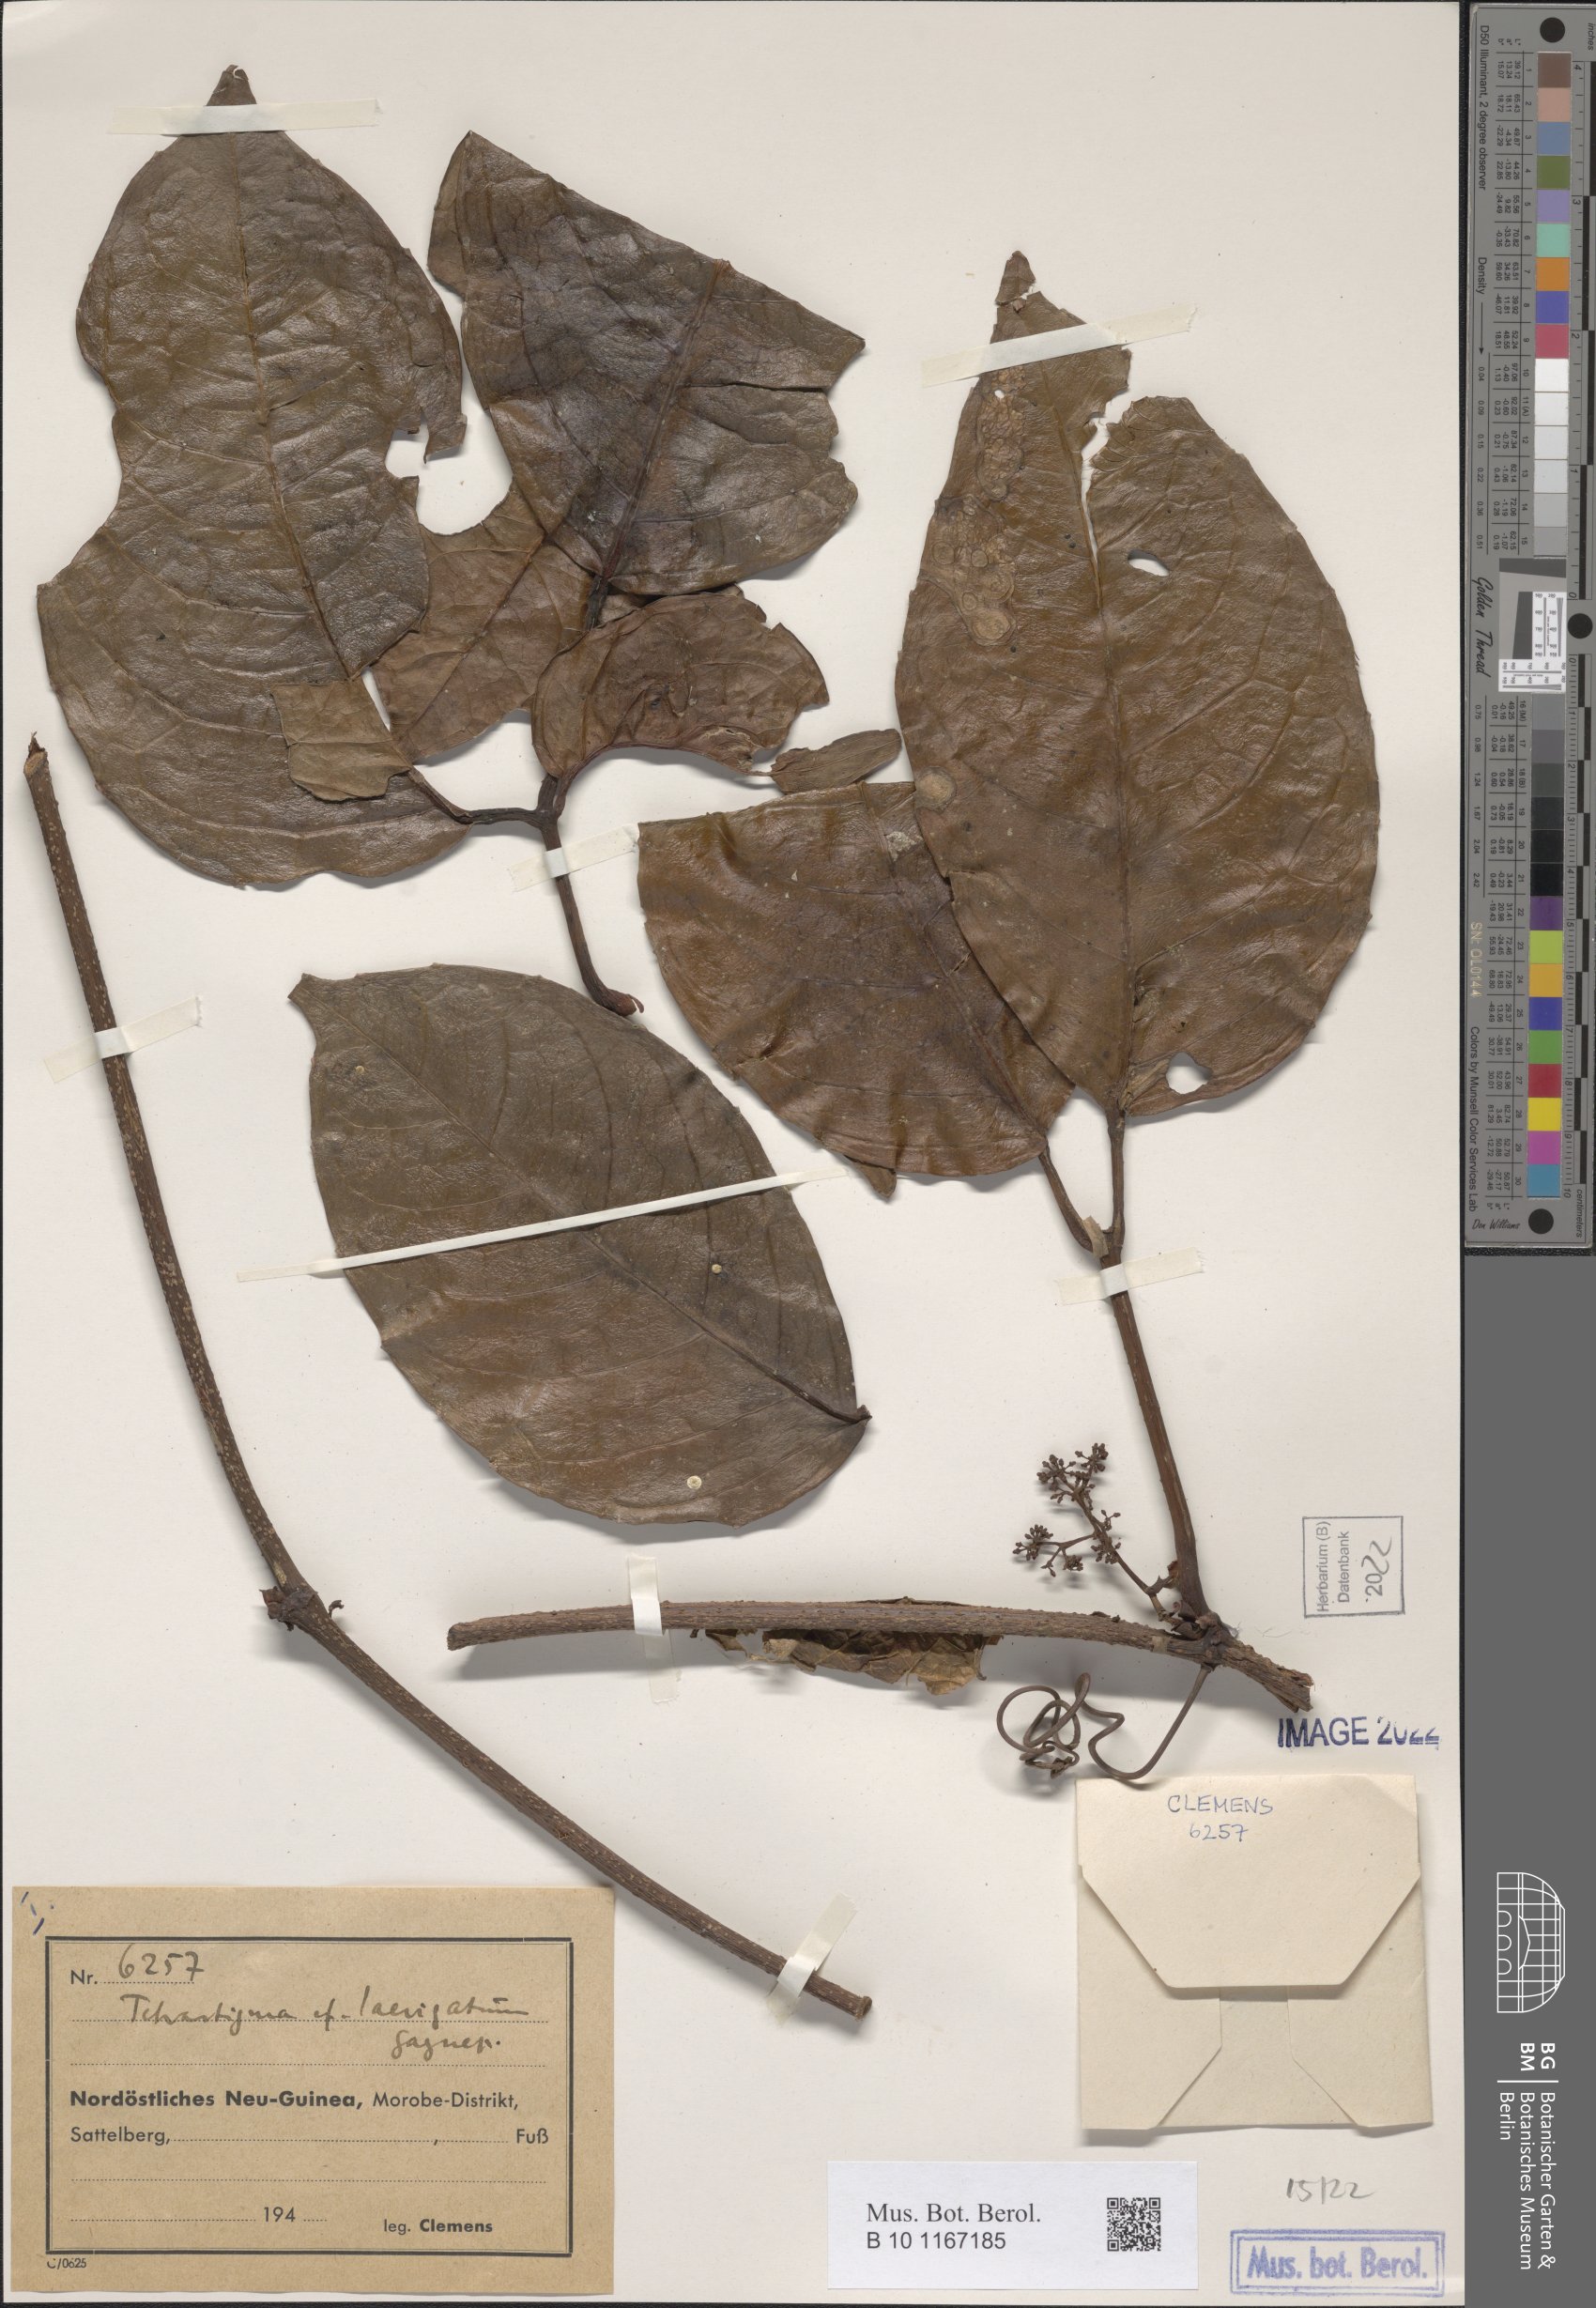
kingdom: Plantae
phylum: Tracheophyta
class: Magnoliopsida
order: Vitales
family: Vitaceae
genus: Tetrastigma
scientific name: Tetrastigma laevigatum
